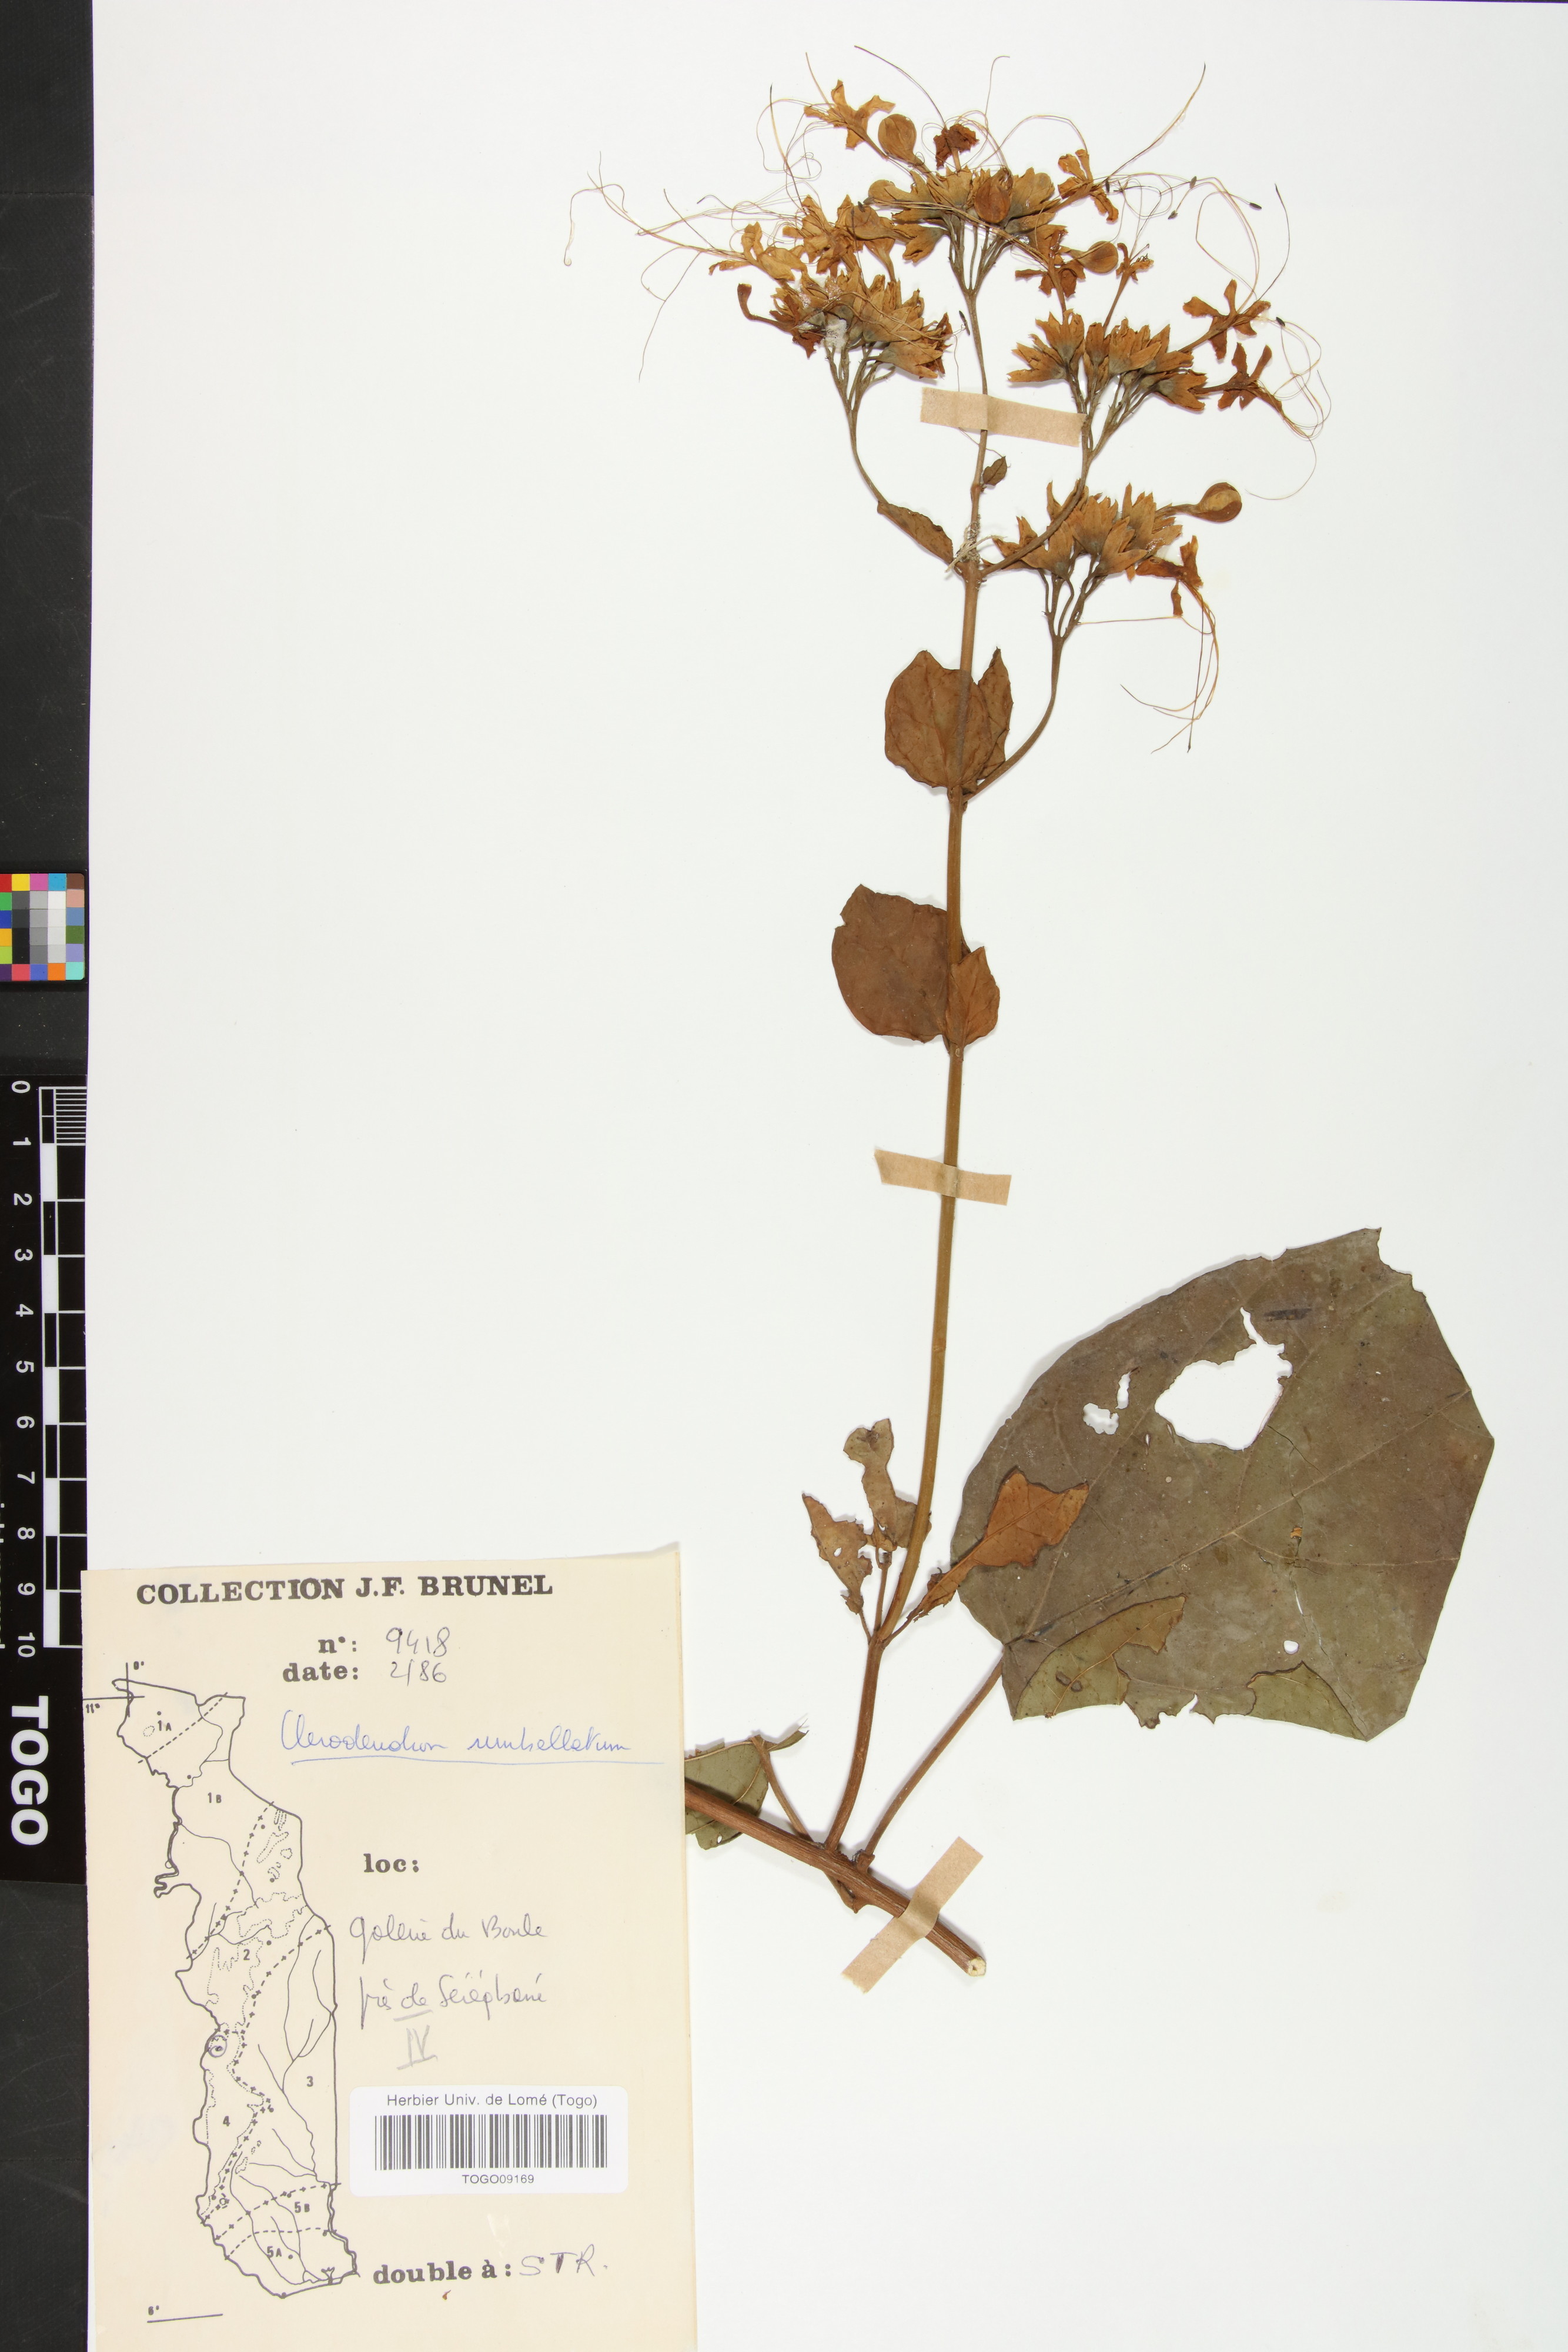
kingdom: Plantae
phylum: Tracheophyta
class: Magnoliopsida
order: Lamiales
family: Lamiaceae
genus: Clerodendrum
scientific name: Clerodendrum umbellatum
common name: Umbel clerodendrum
